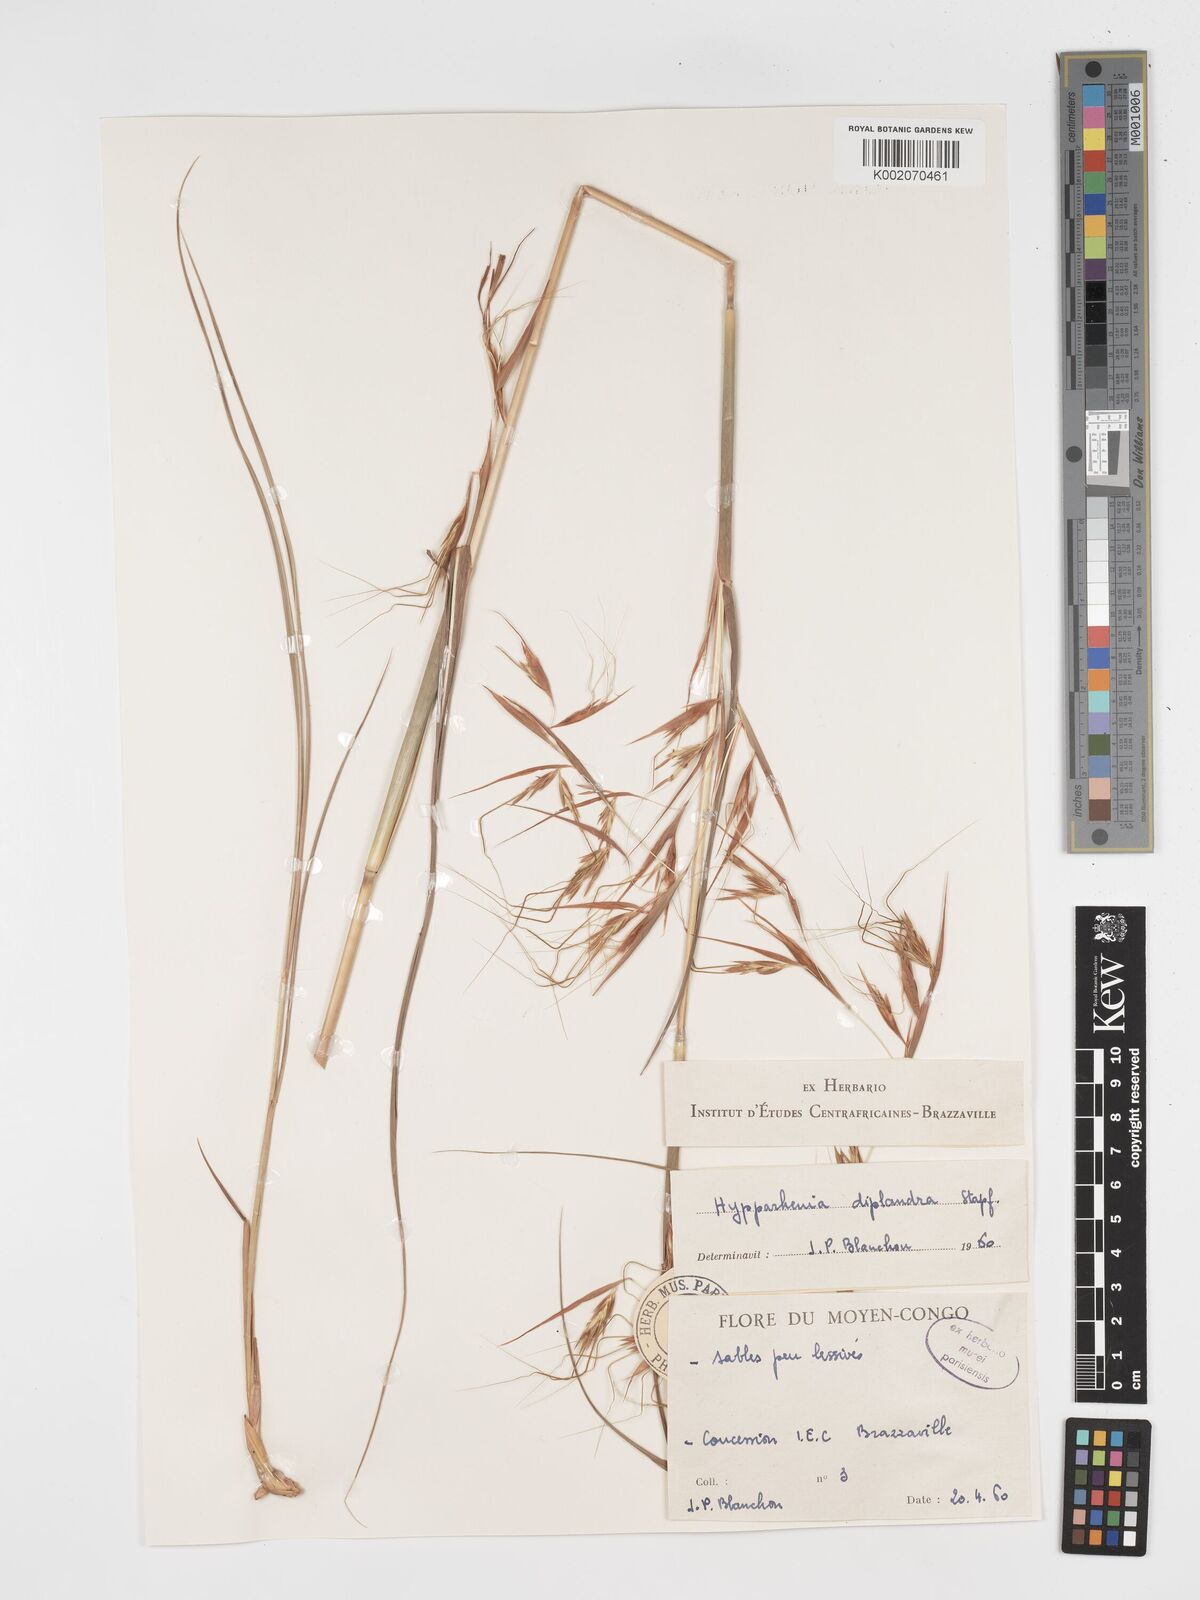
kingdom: Plantae
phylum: Tracheophyta
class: Liliopsida
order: Poales
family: Poaceae
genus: Hyparrhenia
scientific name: Hyparrhenia diplandra
